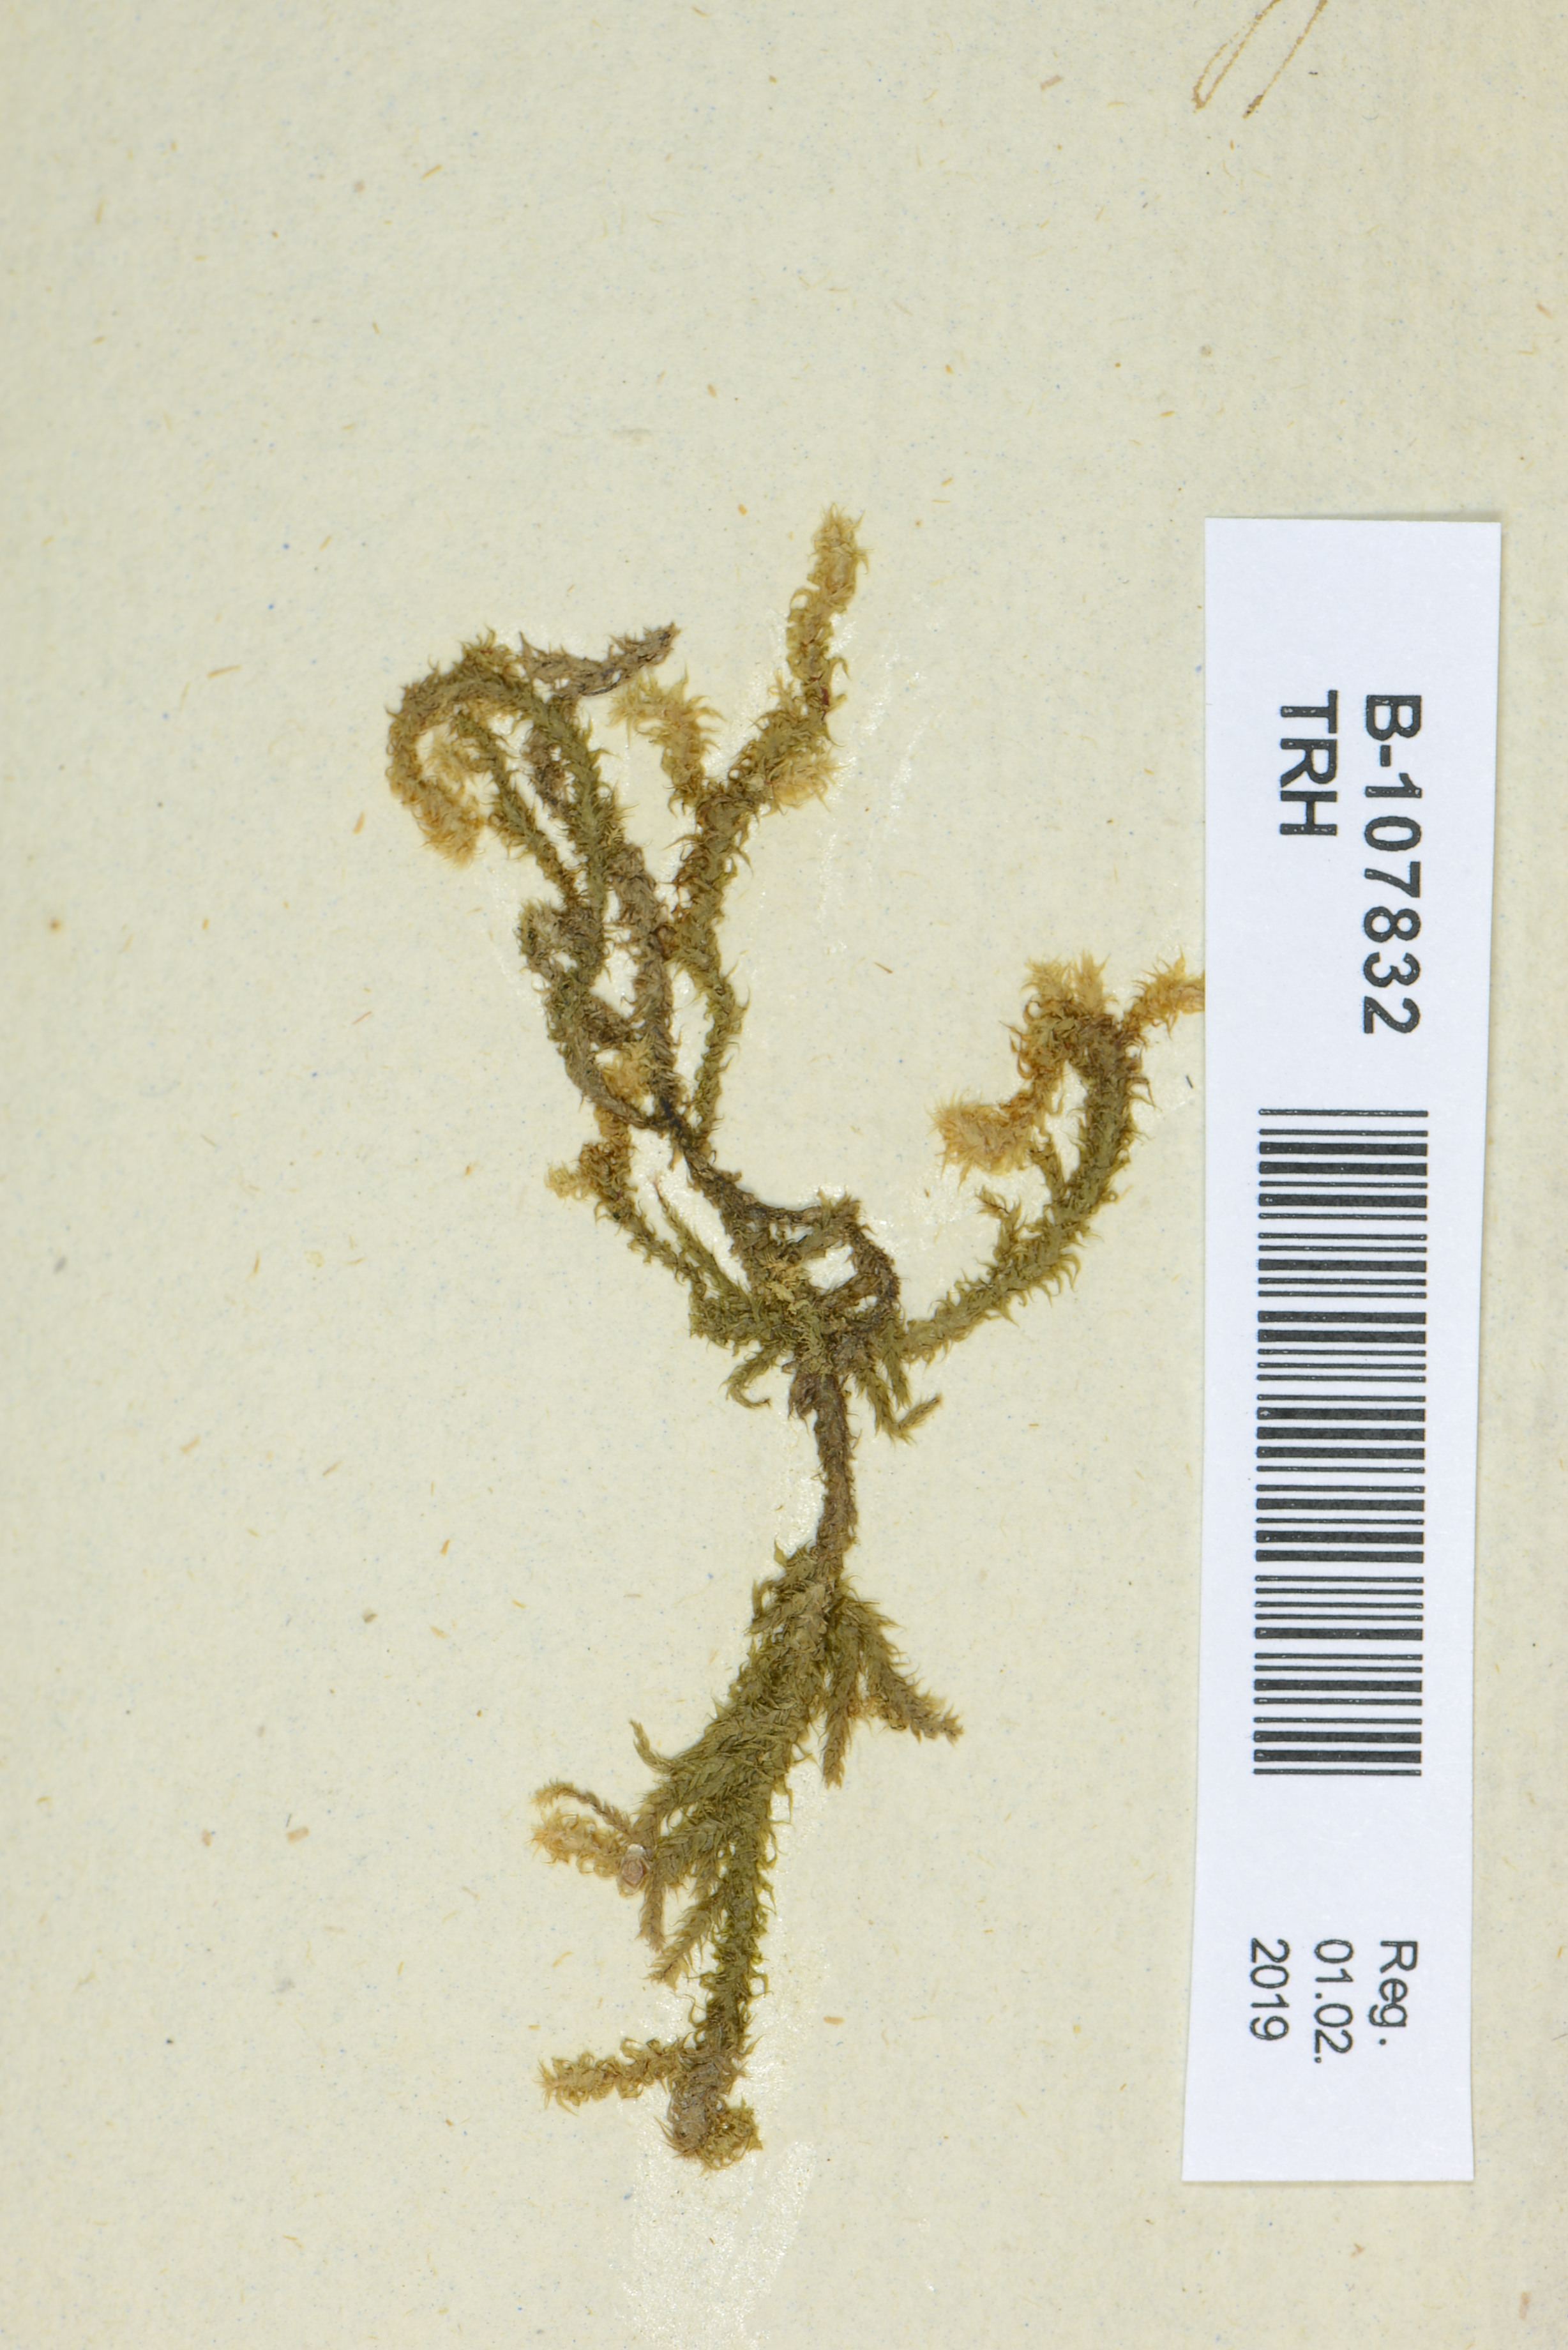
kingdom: Plantae
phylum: Bryophyta
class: Bryopsida
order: Hypnales
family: Hylocomiaceae
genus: Rhytidiadelphus
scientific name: Rhytidiadelphus squarrosus
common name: Springy turf-moss
